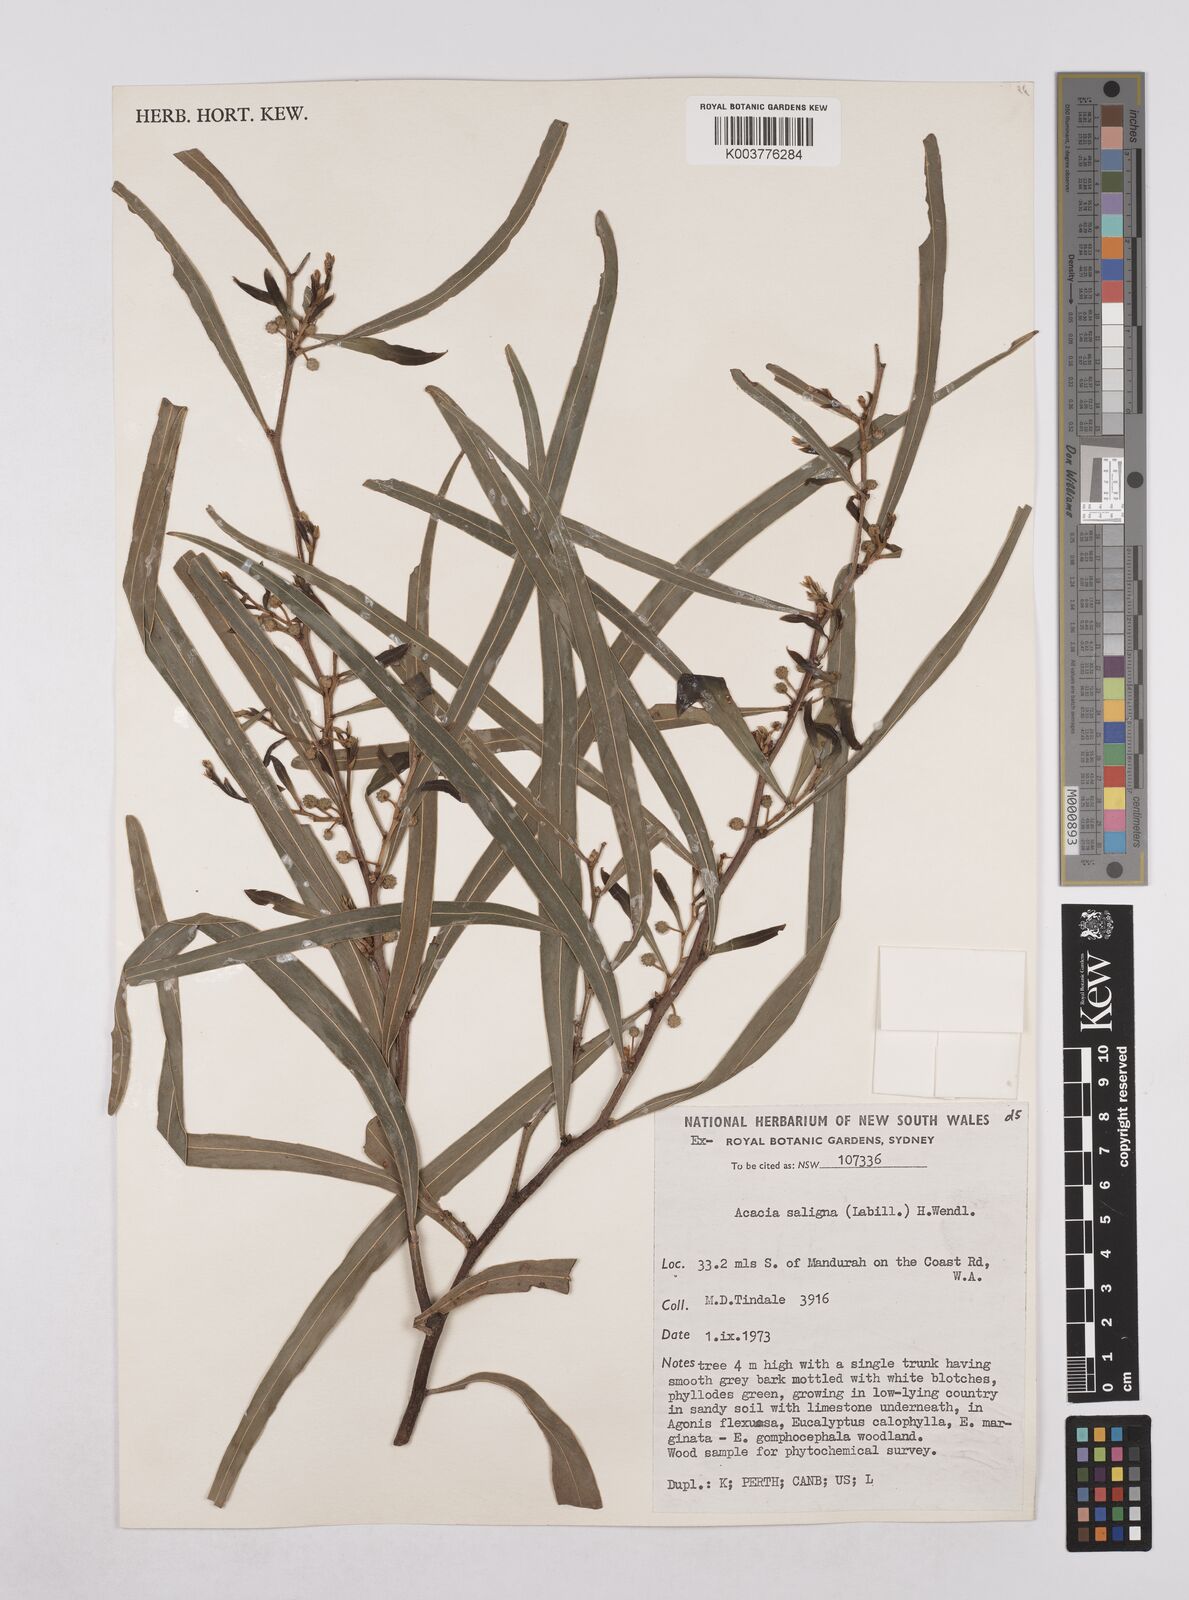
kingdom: Plantae
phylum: Tracheophyta
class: Magnoliopsida
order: Fabales
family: Fabaceae
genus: Acacia
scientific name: Acacia saligna
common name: Orange wattle
